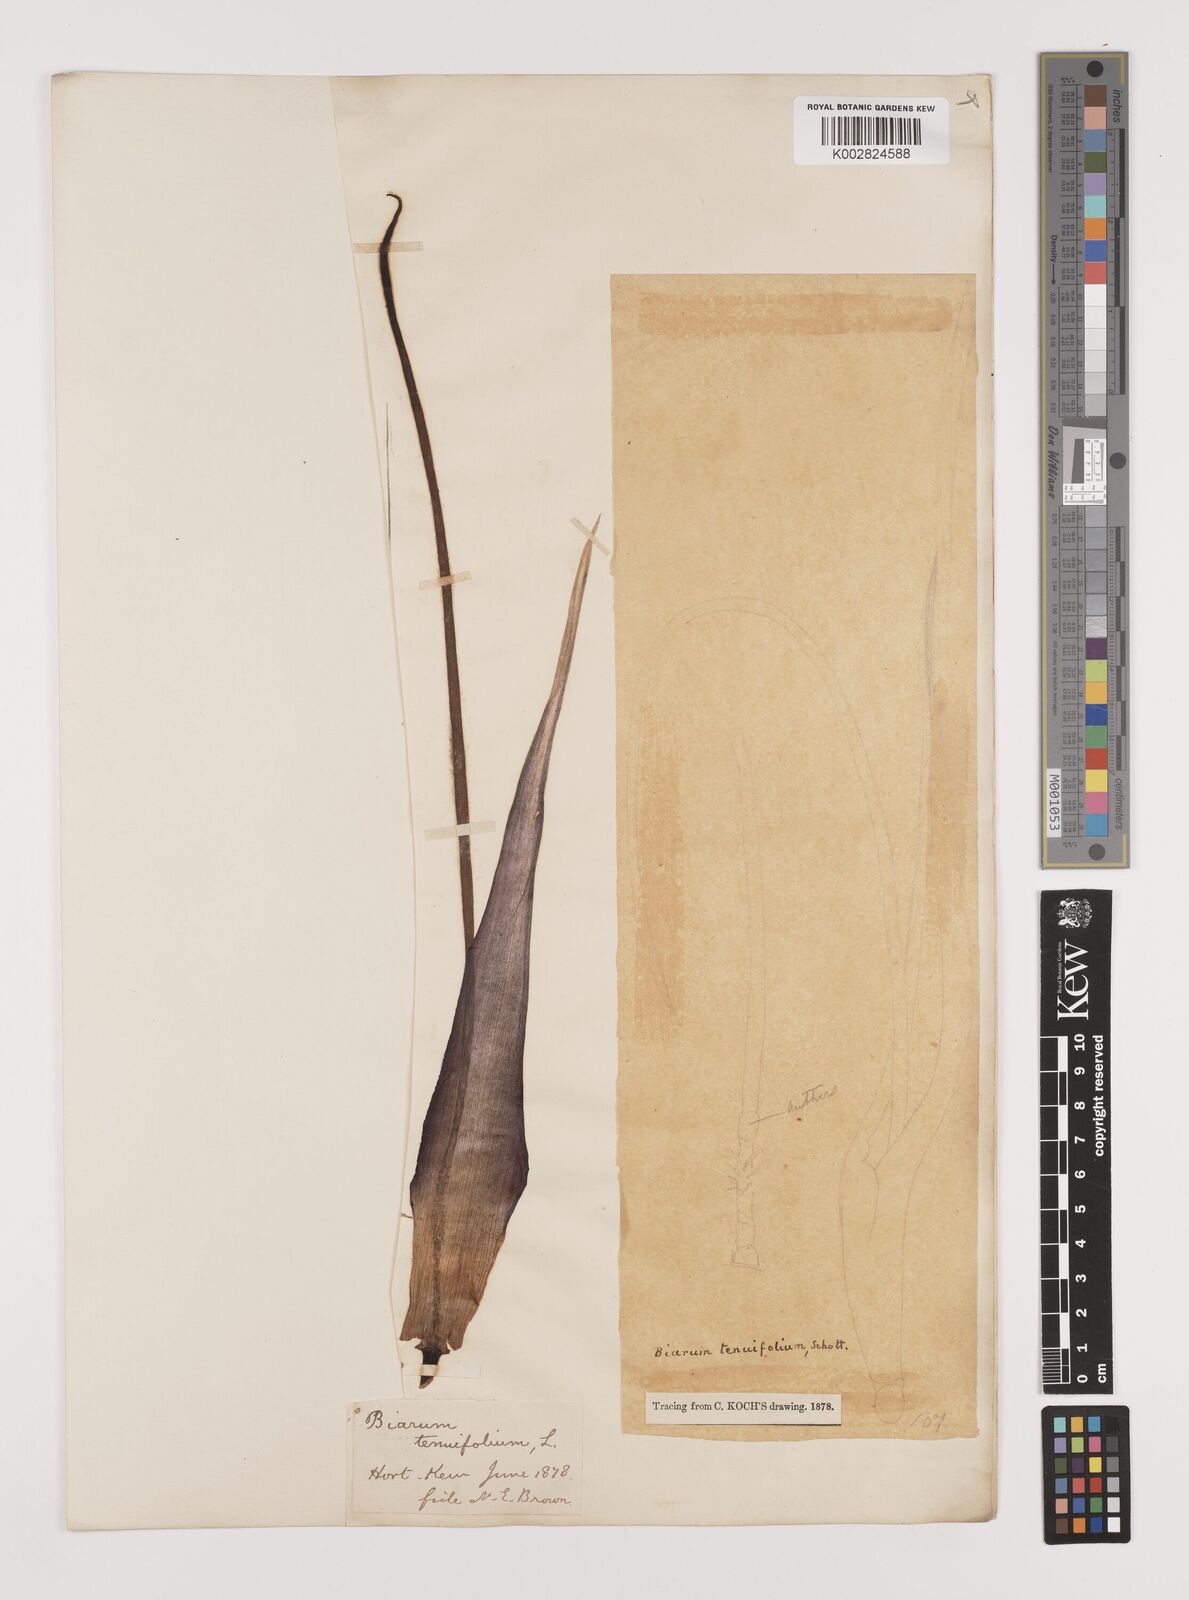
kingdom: Plantae
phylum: Tracheophyta
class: Liliopsida
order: Alismatales
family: Araceae
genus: Biarum
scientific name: Biarum tenuifolium
